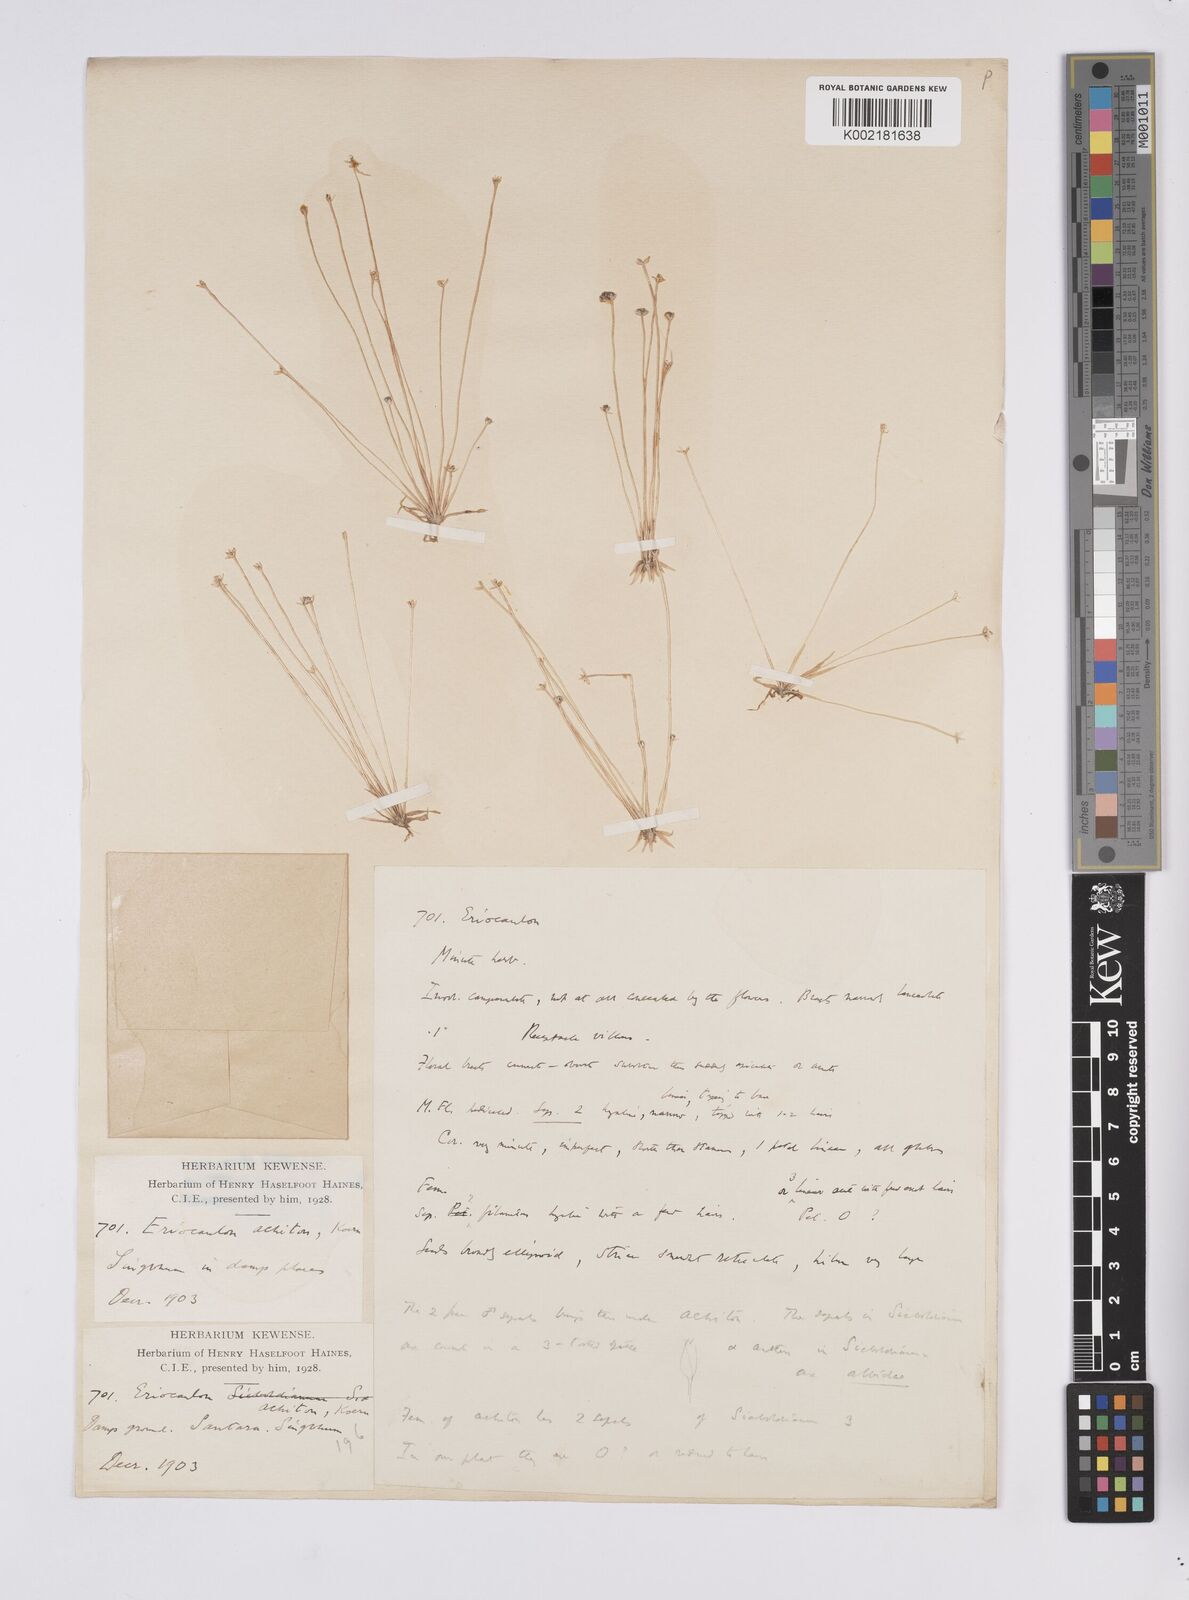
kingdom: Plantae
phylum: Tracheophyta
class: Liliopsida
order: Poales
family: Eriocaulaceae
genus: Eriocaulon
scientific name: Eriocaulon achiton
